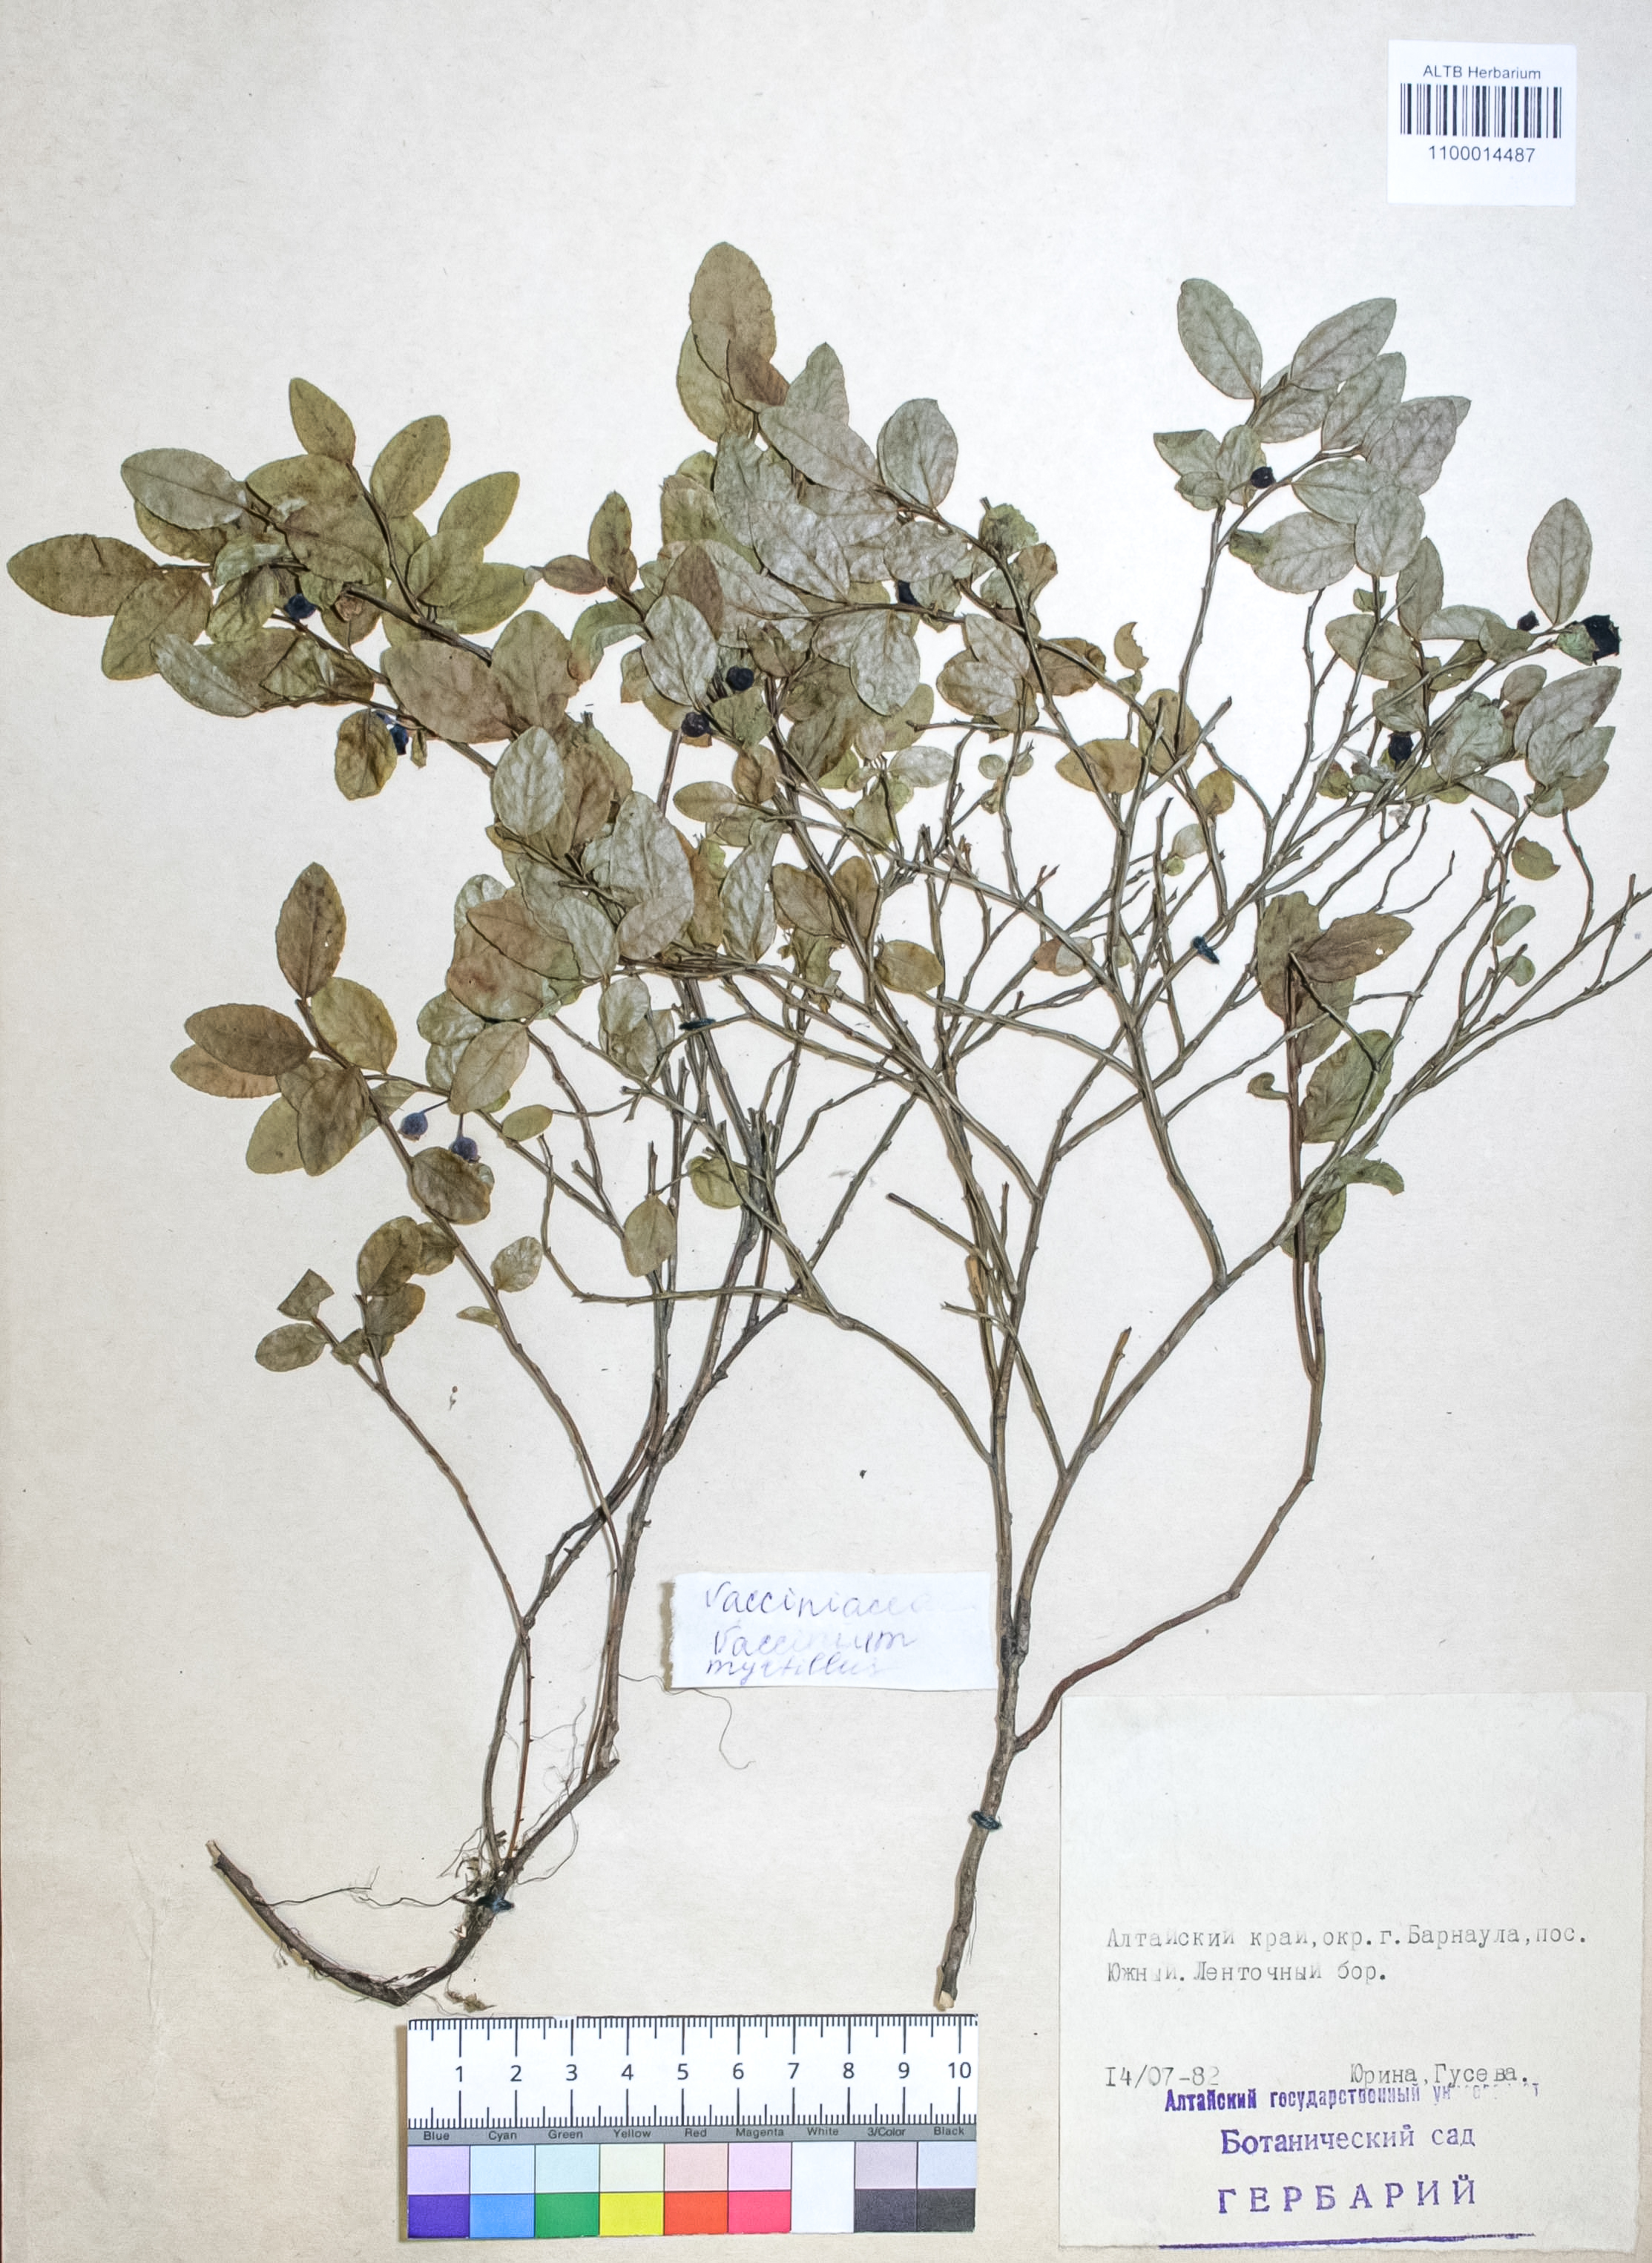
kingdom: Plantae
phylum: Tracheophyta
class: Magnoliopsida
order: Ericales
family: Ericaceae
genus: Vaccinium
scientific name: Vaccinium myrtillus
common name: Bilberry
